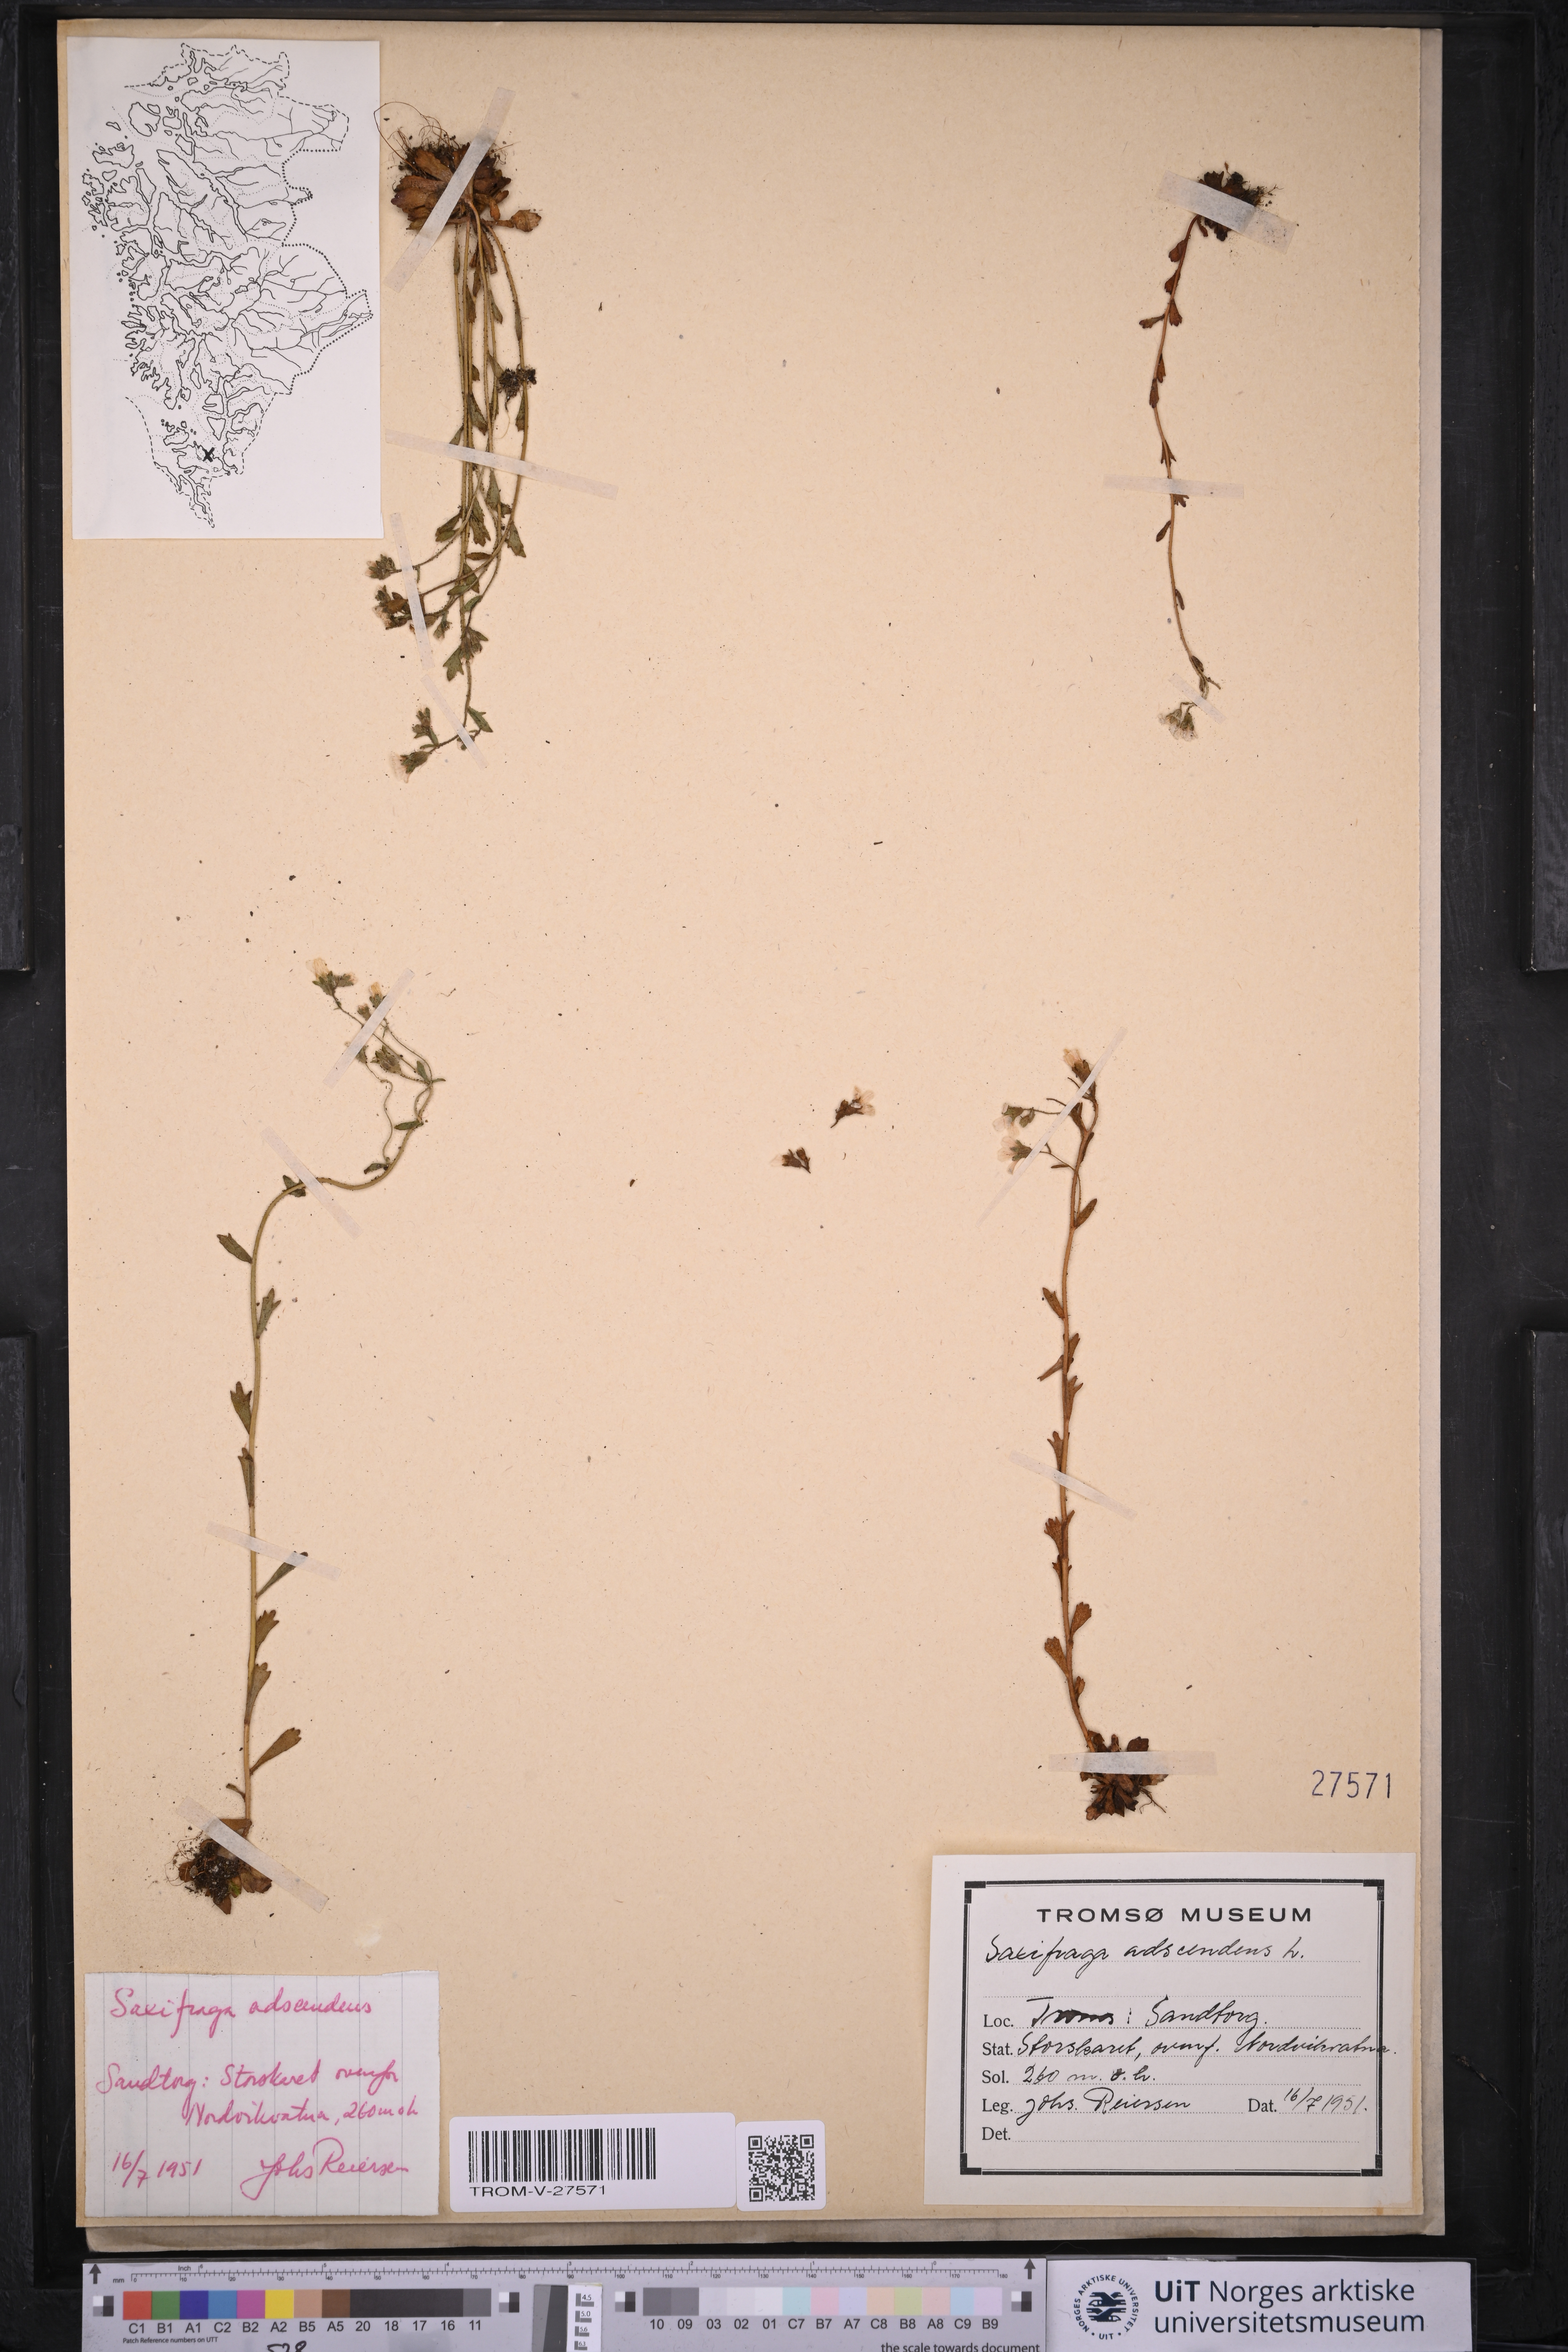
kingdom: Plantae
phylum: Tracheophyta
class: Magnoliopsida
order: Saxifragales
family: Saxifragaceae
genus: Saxifraga
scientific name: Saxifraga adscendens
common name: Ascending saxifrage
